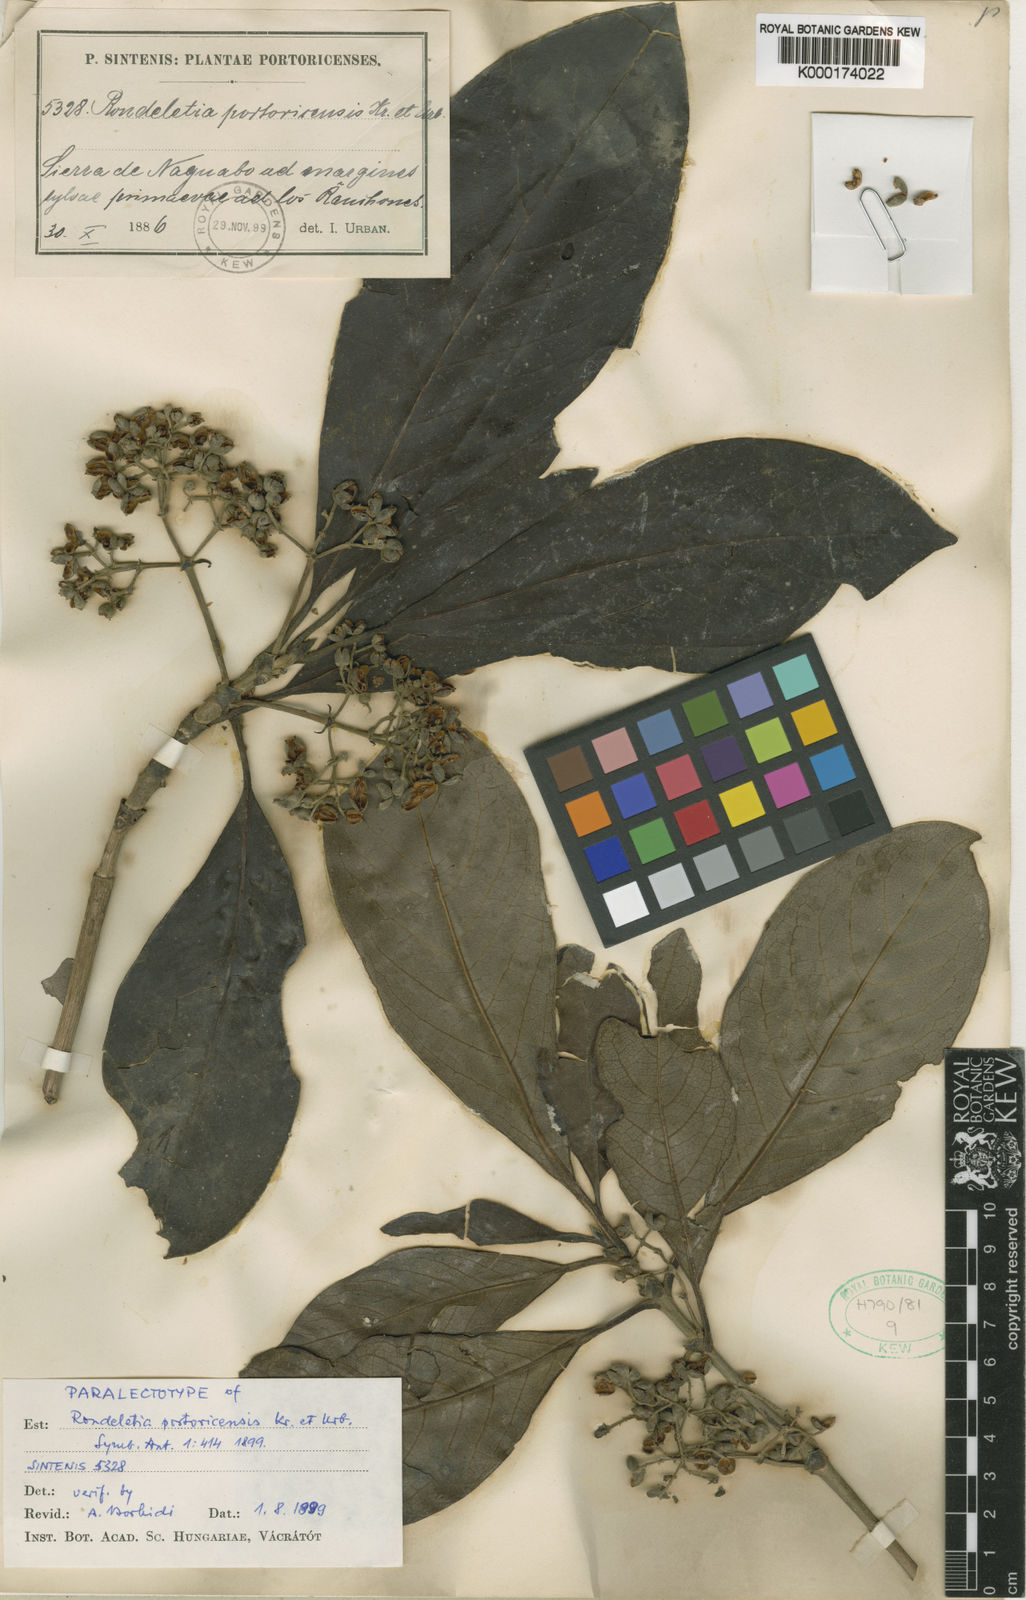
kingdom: Plantae
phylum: Tracheophyta
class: Magnoliopsida
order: Gentianales
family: Rubiaceae
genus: Rondeletia
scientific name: Rondeletia portoricensis
